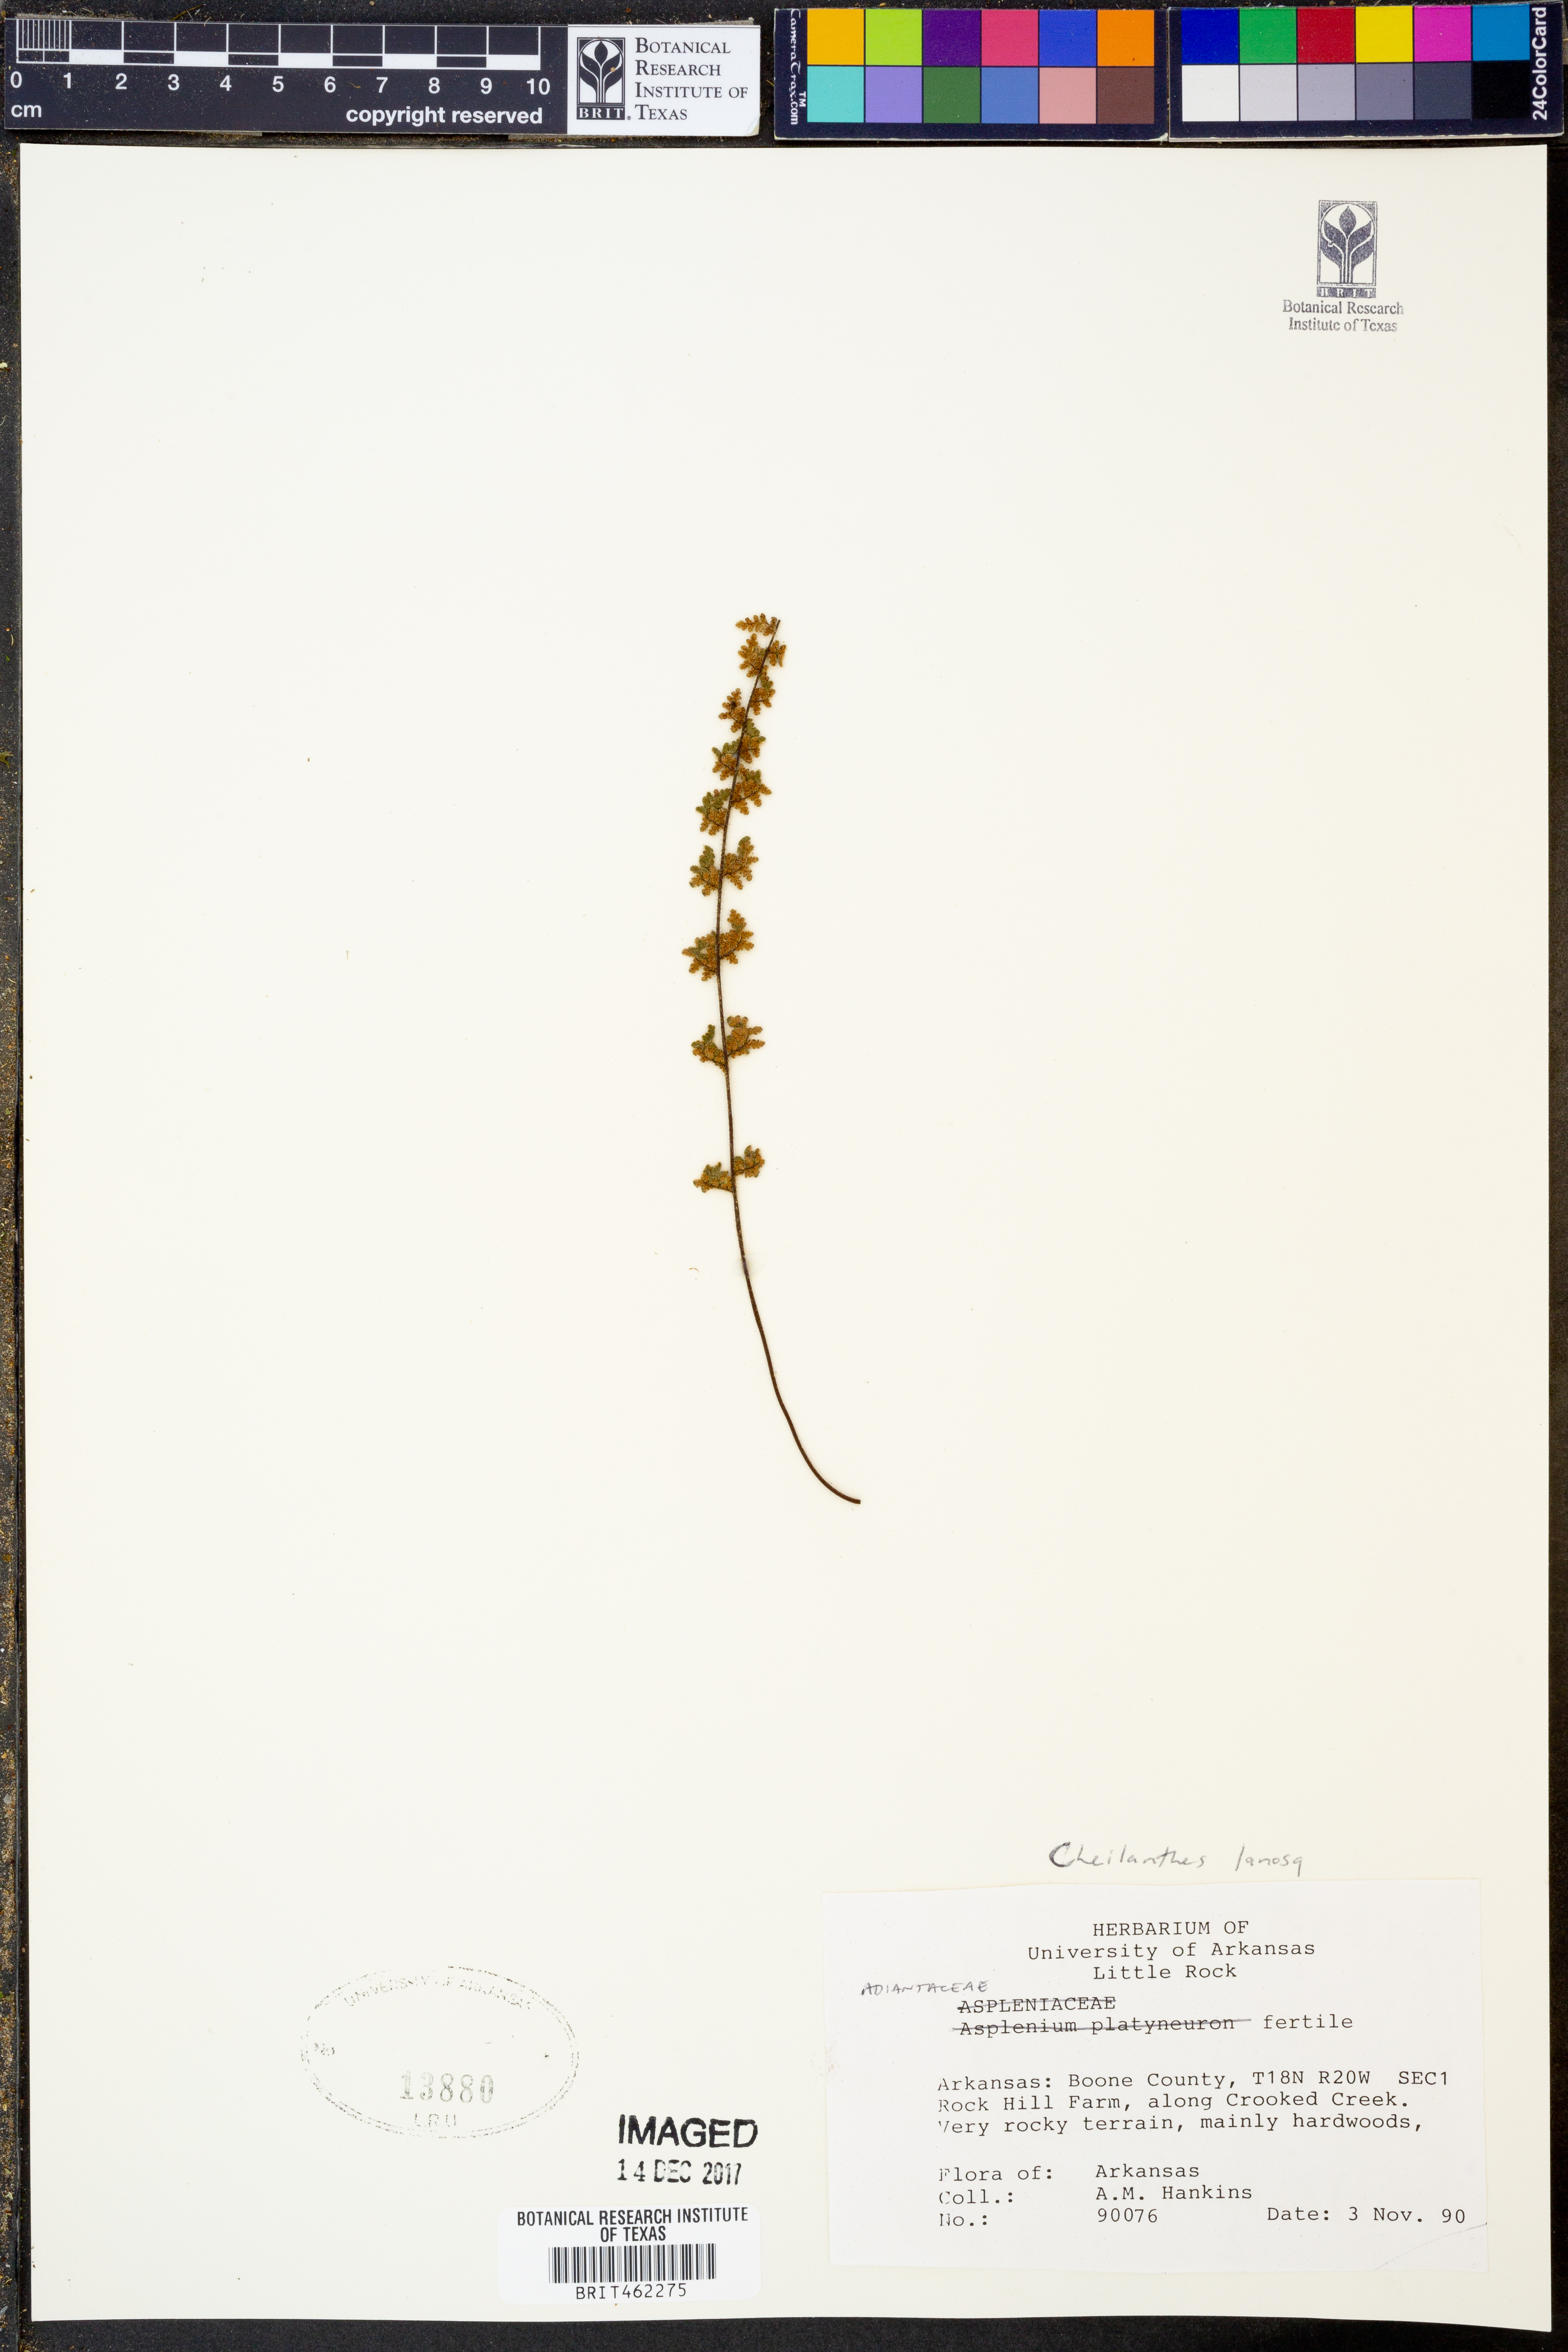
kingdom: Plantae
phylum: Tracheophyta
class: Polypodiopsida
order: Polypodiales
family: Pteridaceae
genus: Myriopteris
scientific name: Myriopteris lanosa
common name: Hairy lip fern
